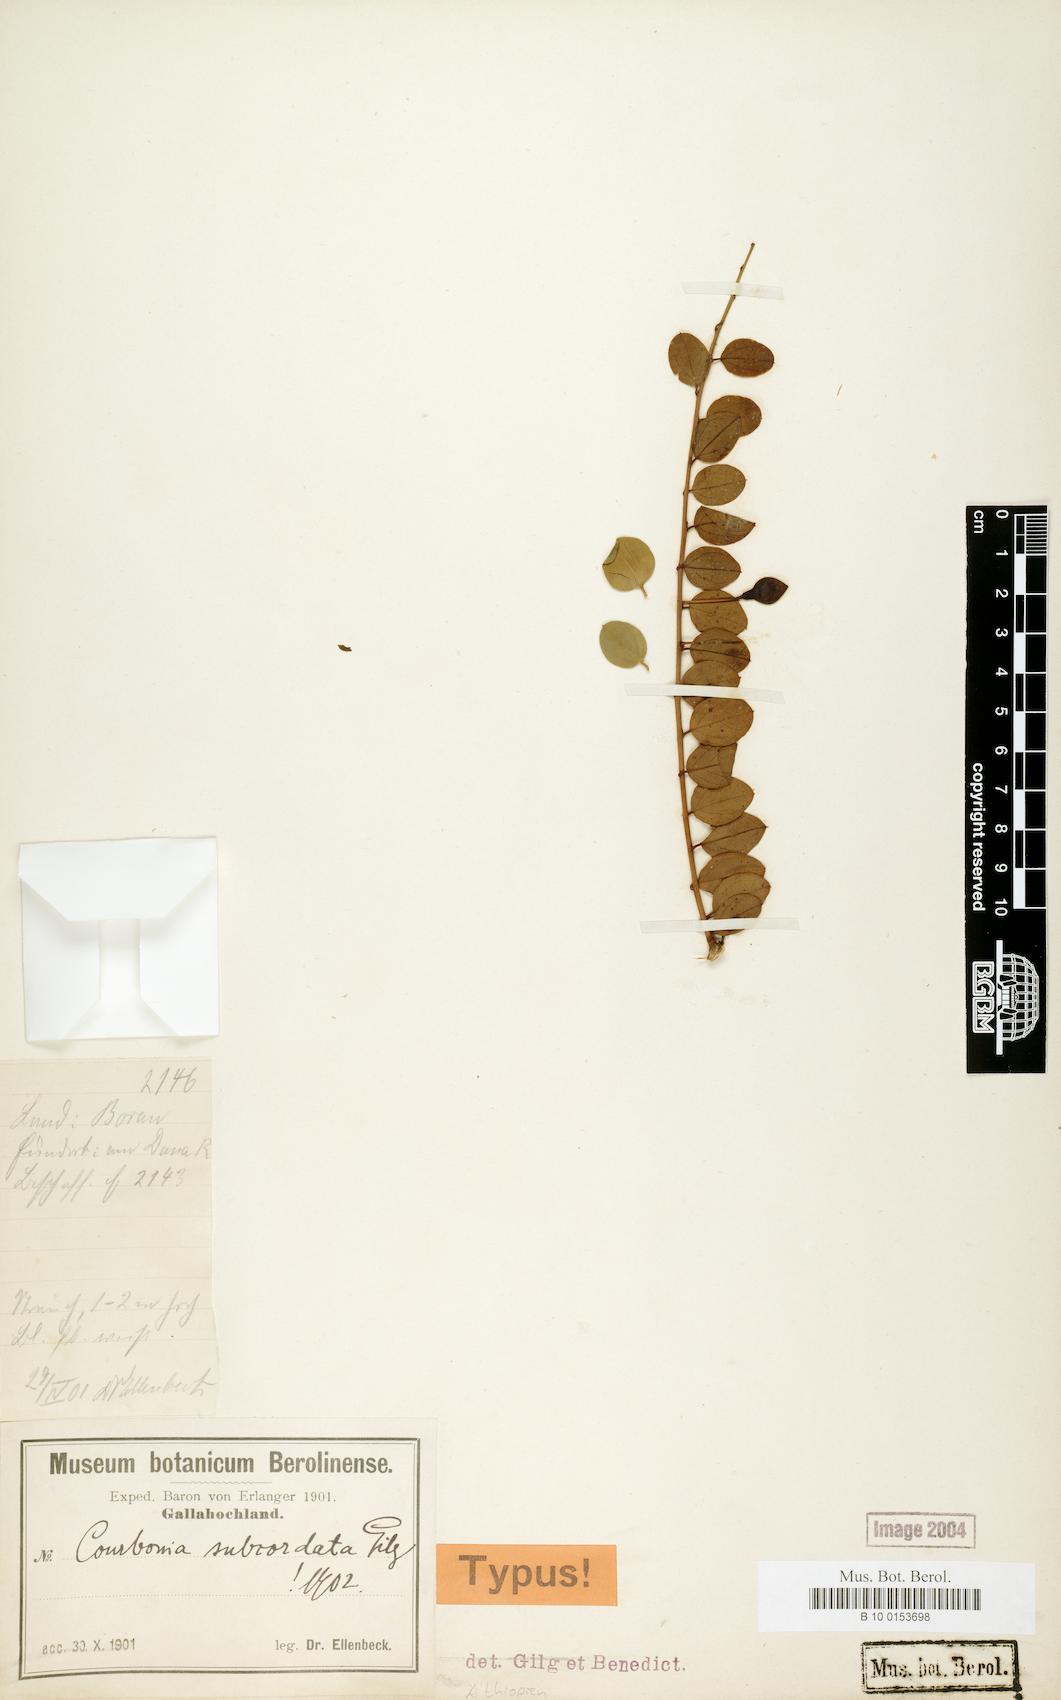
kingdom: Plantae
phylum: Tracheophyta
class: Magnoliopsida
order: Brassicales
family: Capparaceae
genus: Maerua
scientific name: Maerua subcordata
